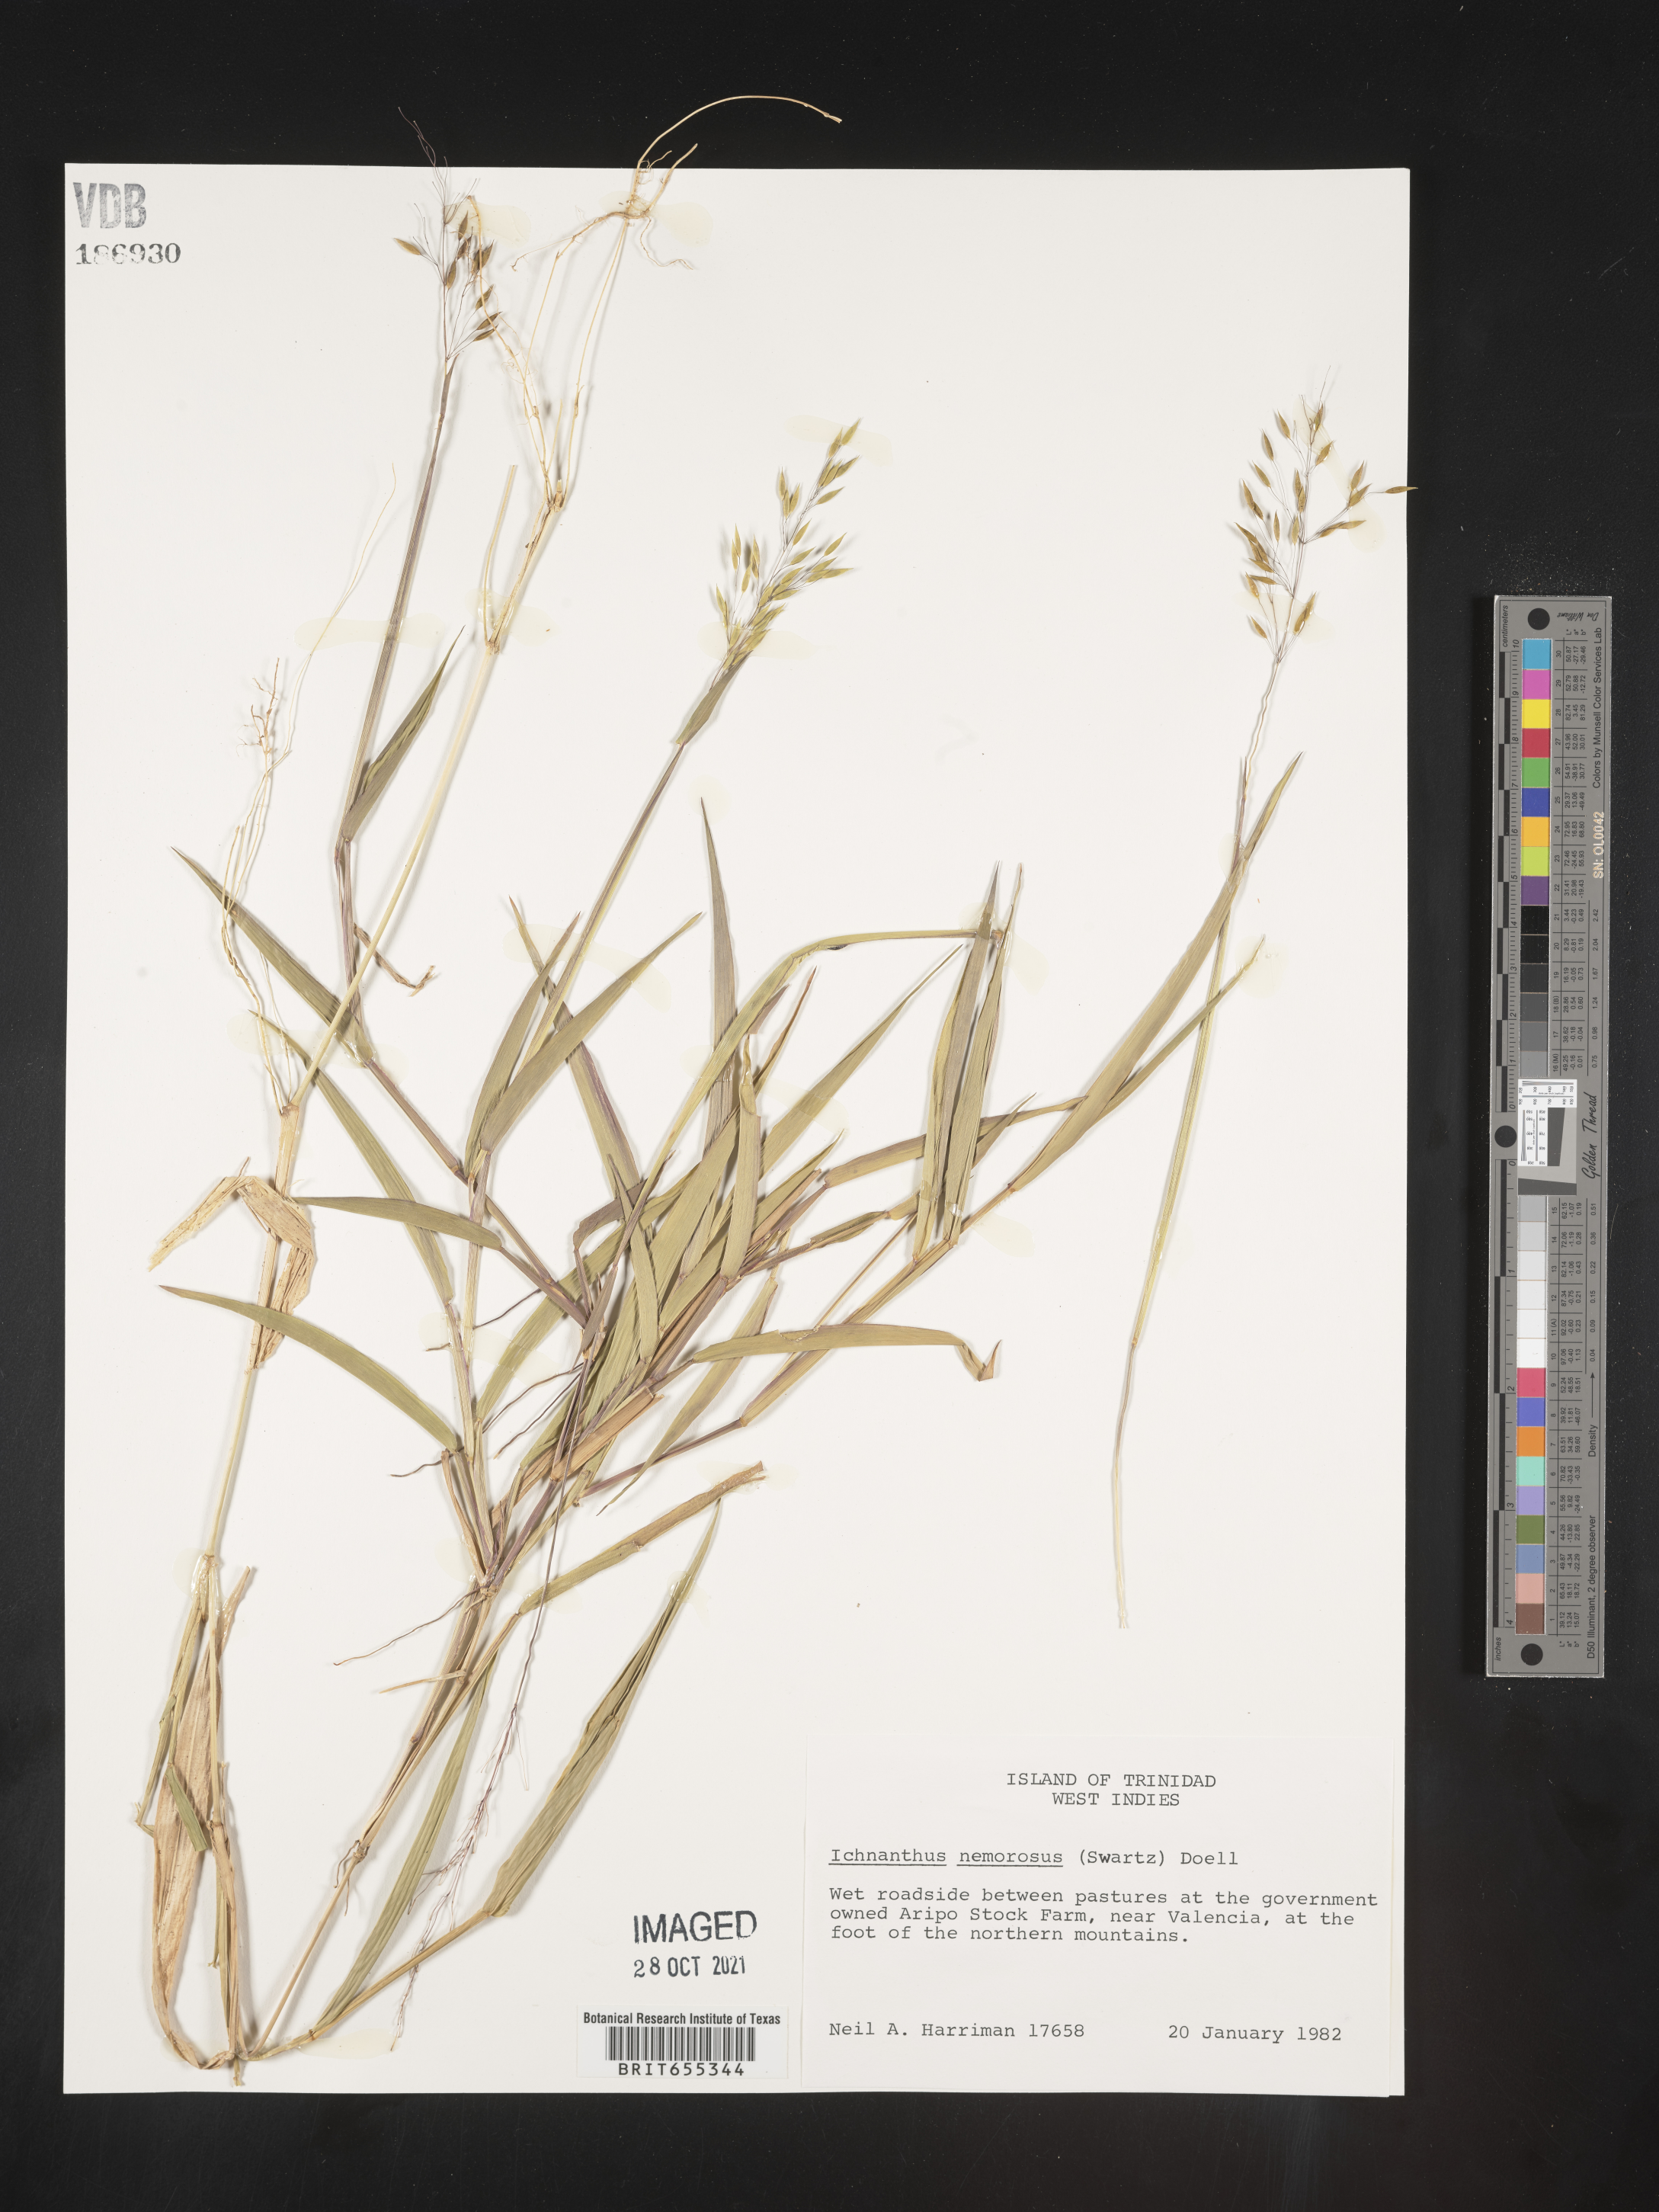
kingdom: Plantae
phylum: Tracheophyta
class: Liliopsida
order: Poales
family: Poaceae
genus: Ichnanthus
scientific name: Ichnanthus
